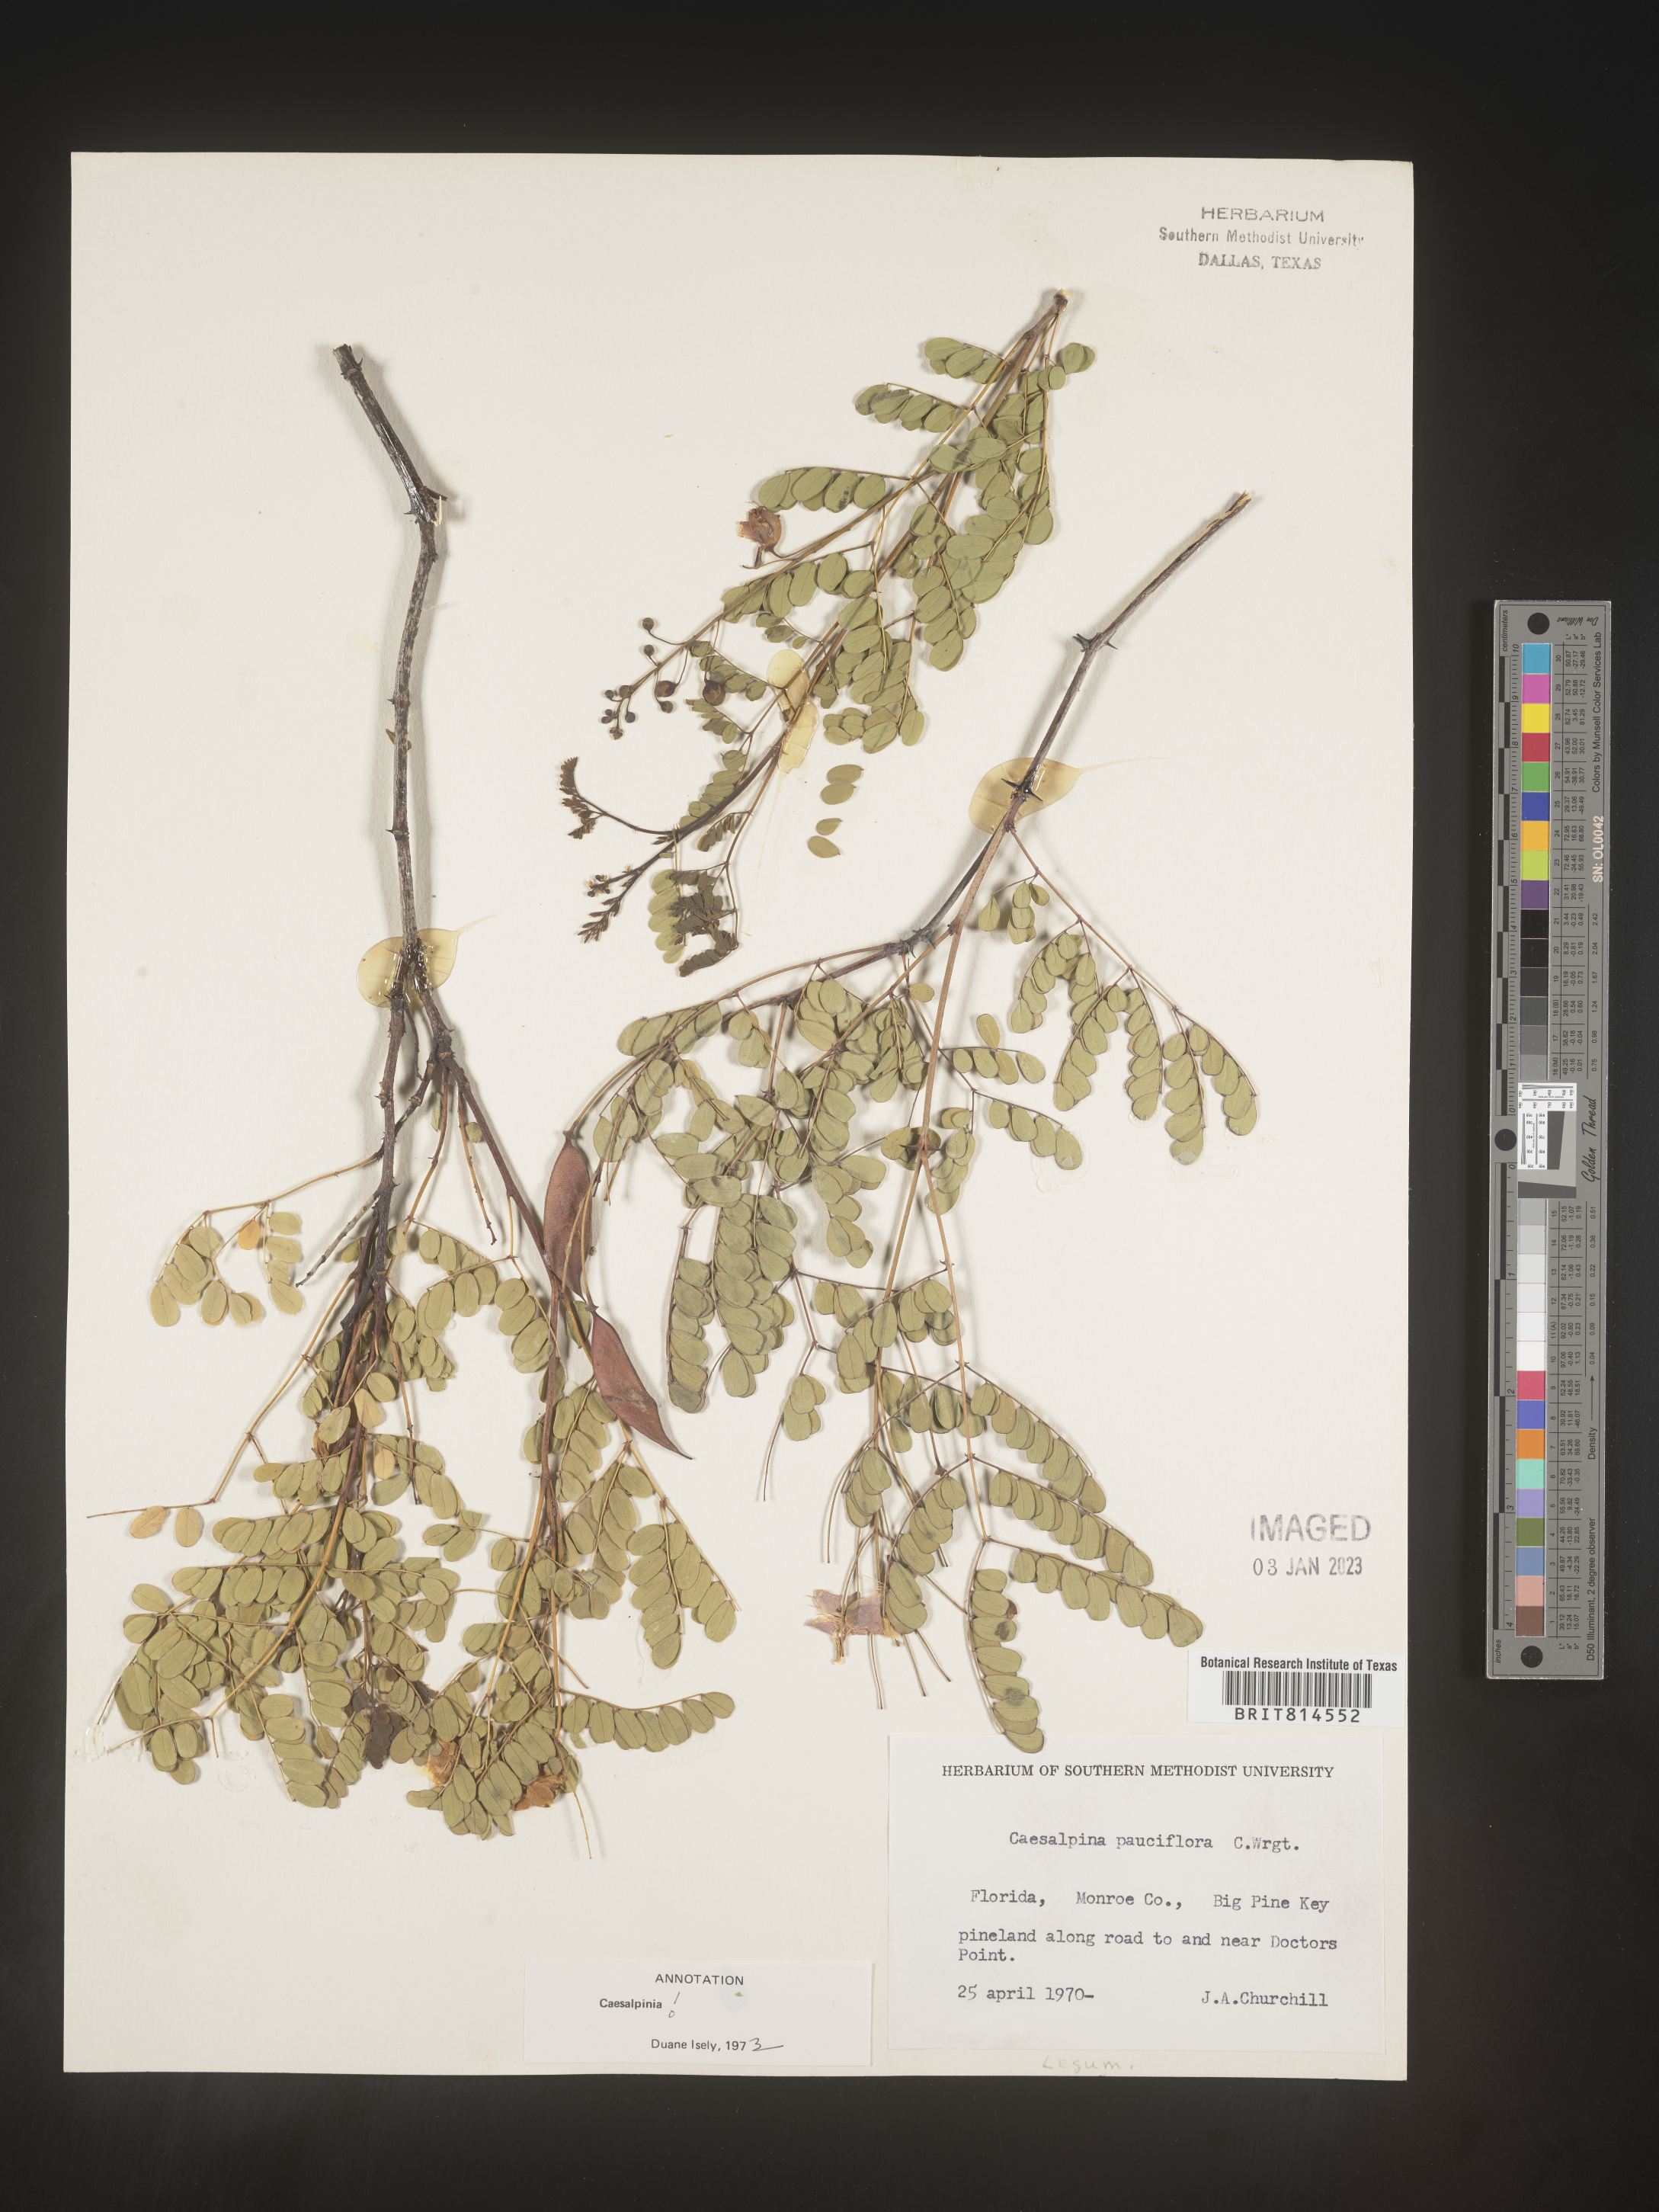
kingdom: Plantae
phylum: Tracheophyta
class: Magnoliopsida
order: Fabales
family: Fabaceae
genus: Caesalpinia
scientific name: Caesalpinia
